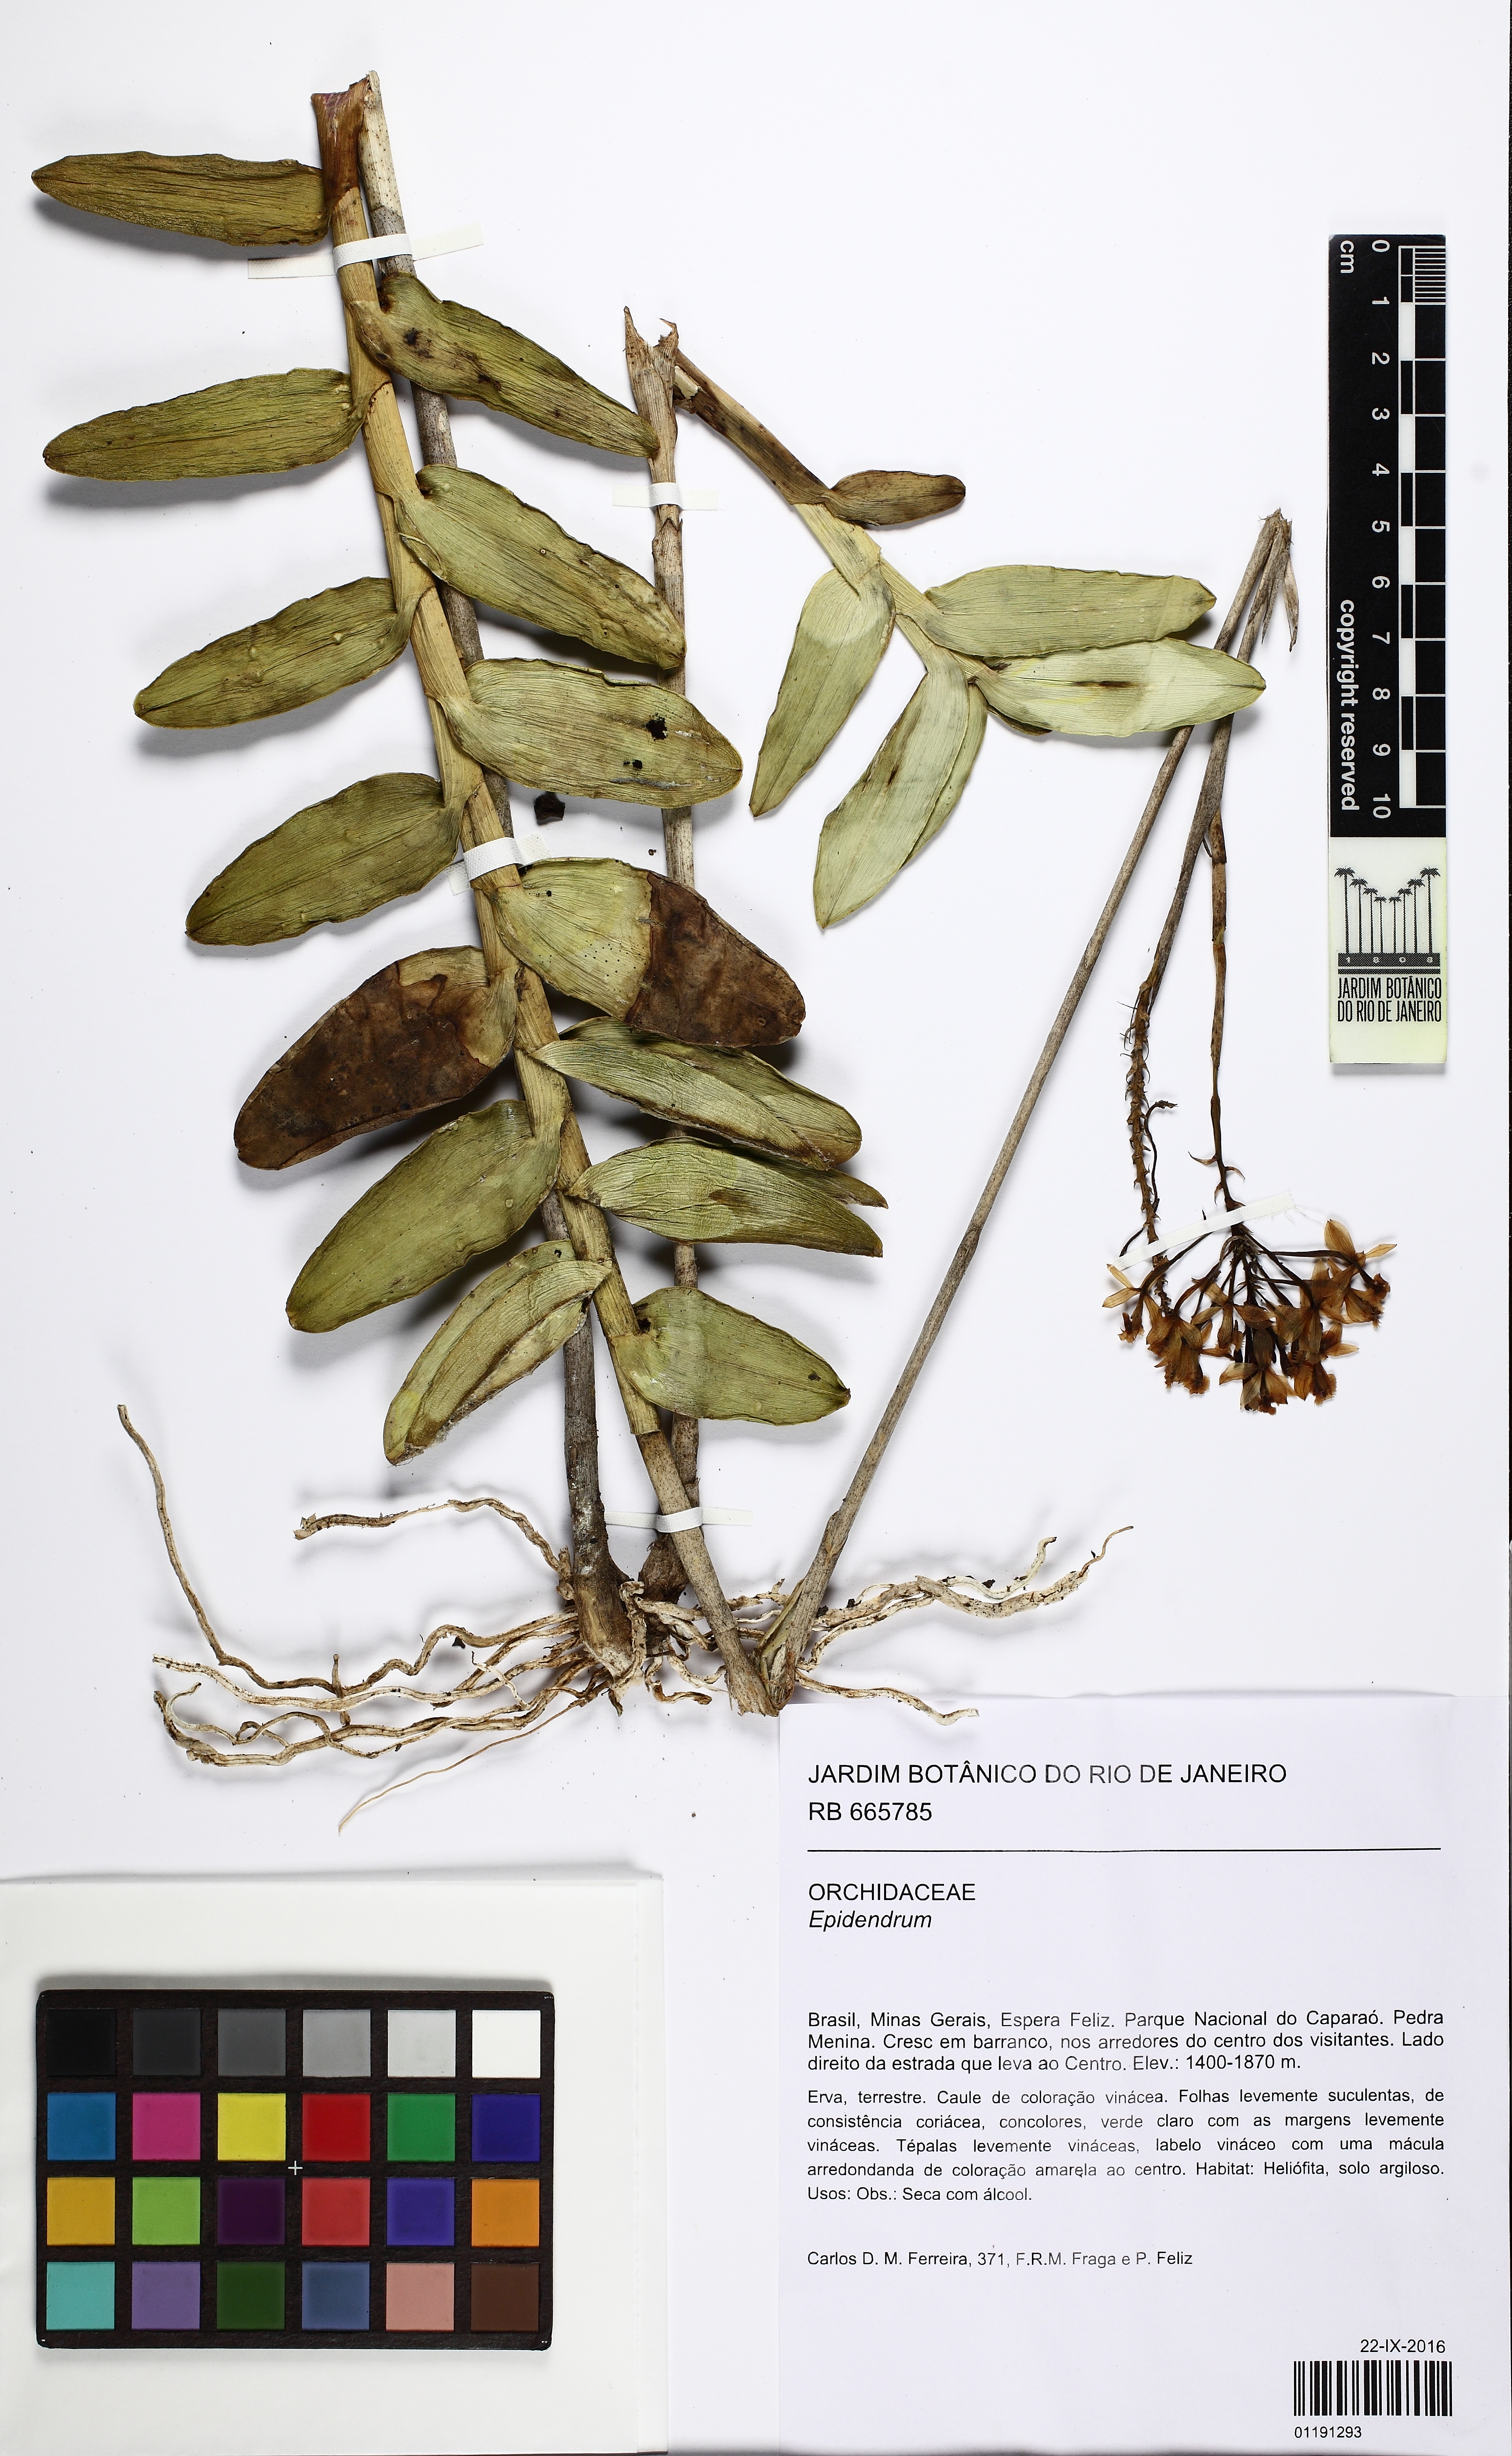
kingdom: Plantae
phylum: Tracheophyta
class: Liliopsida
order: Asparagales
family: Orchidaceae
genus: Epidendrum
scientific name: Epidendrum secundum
